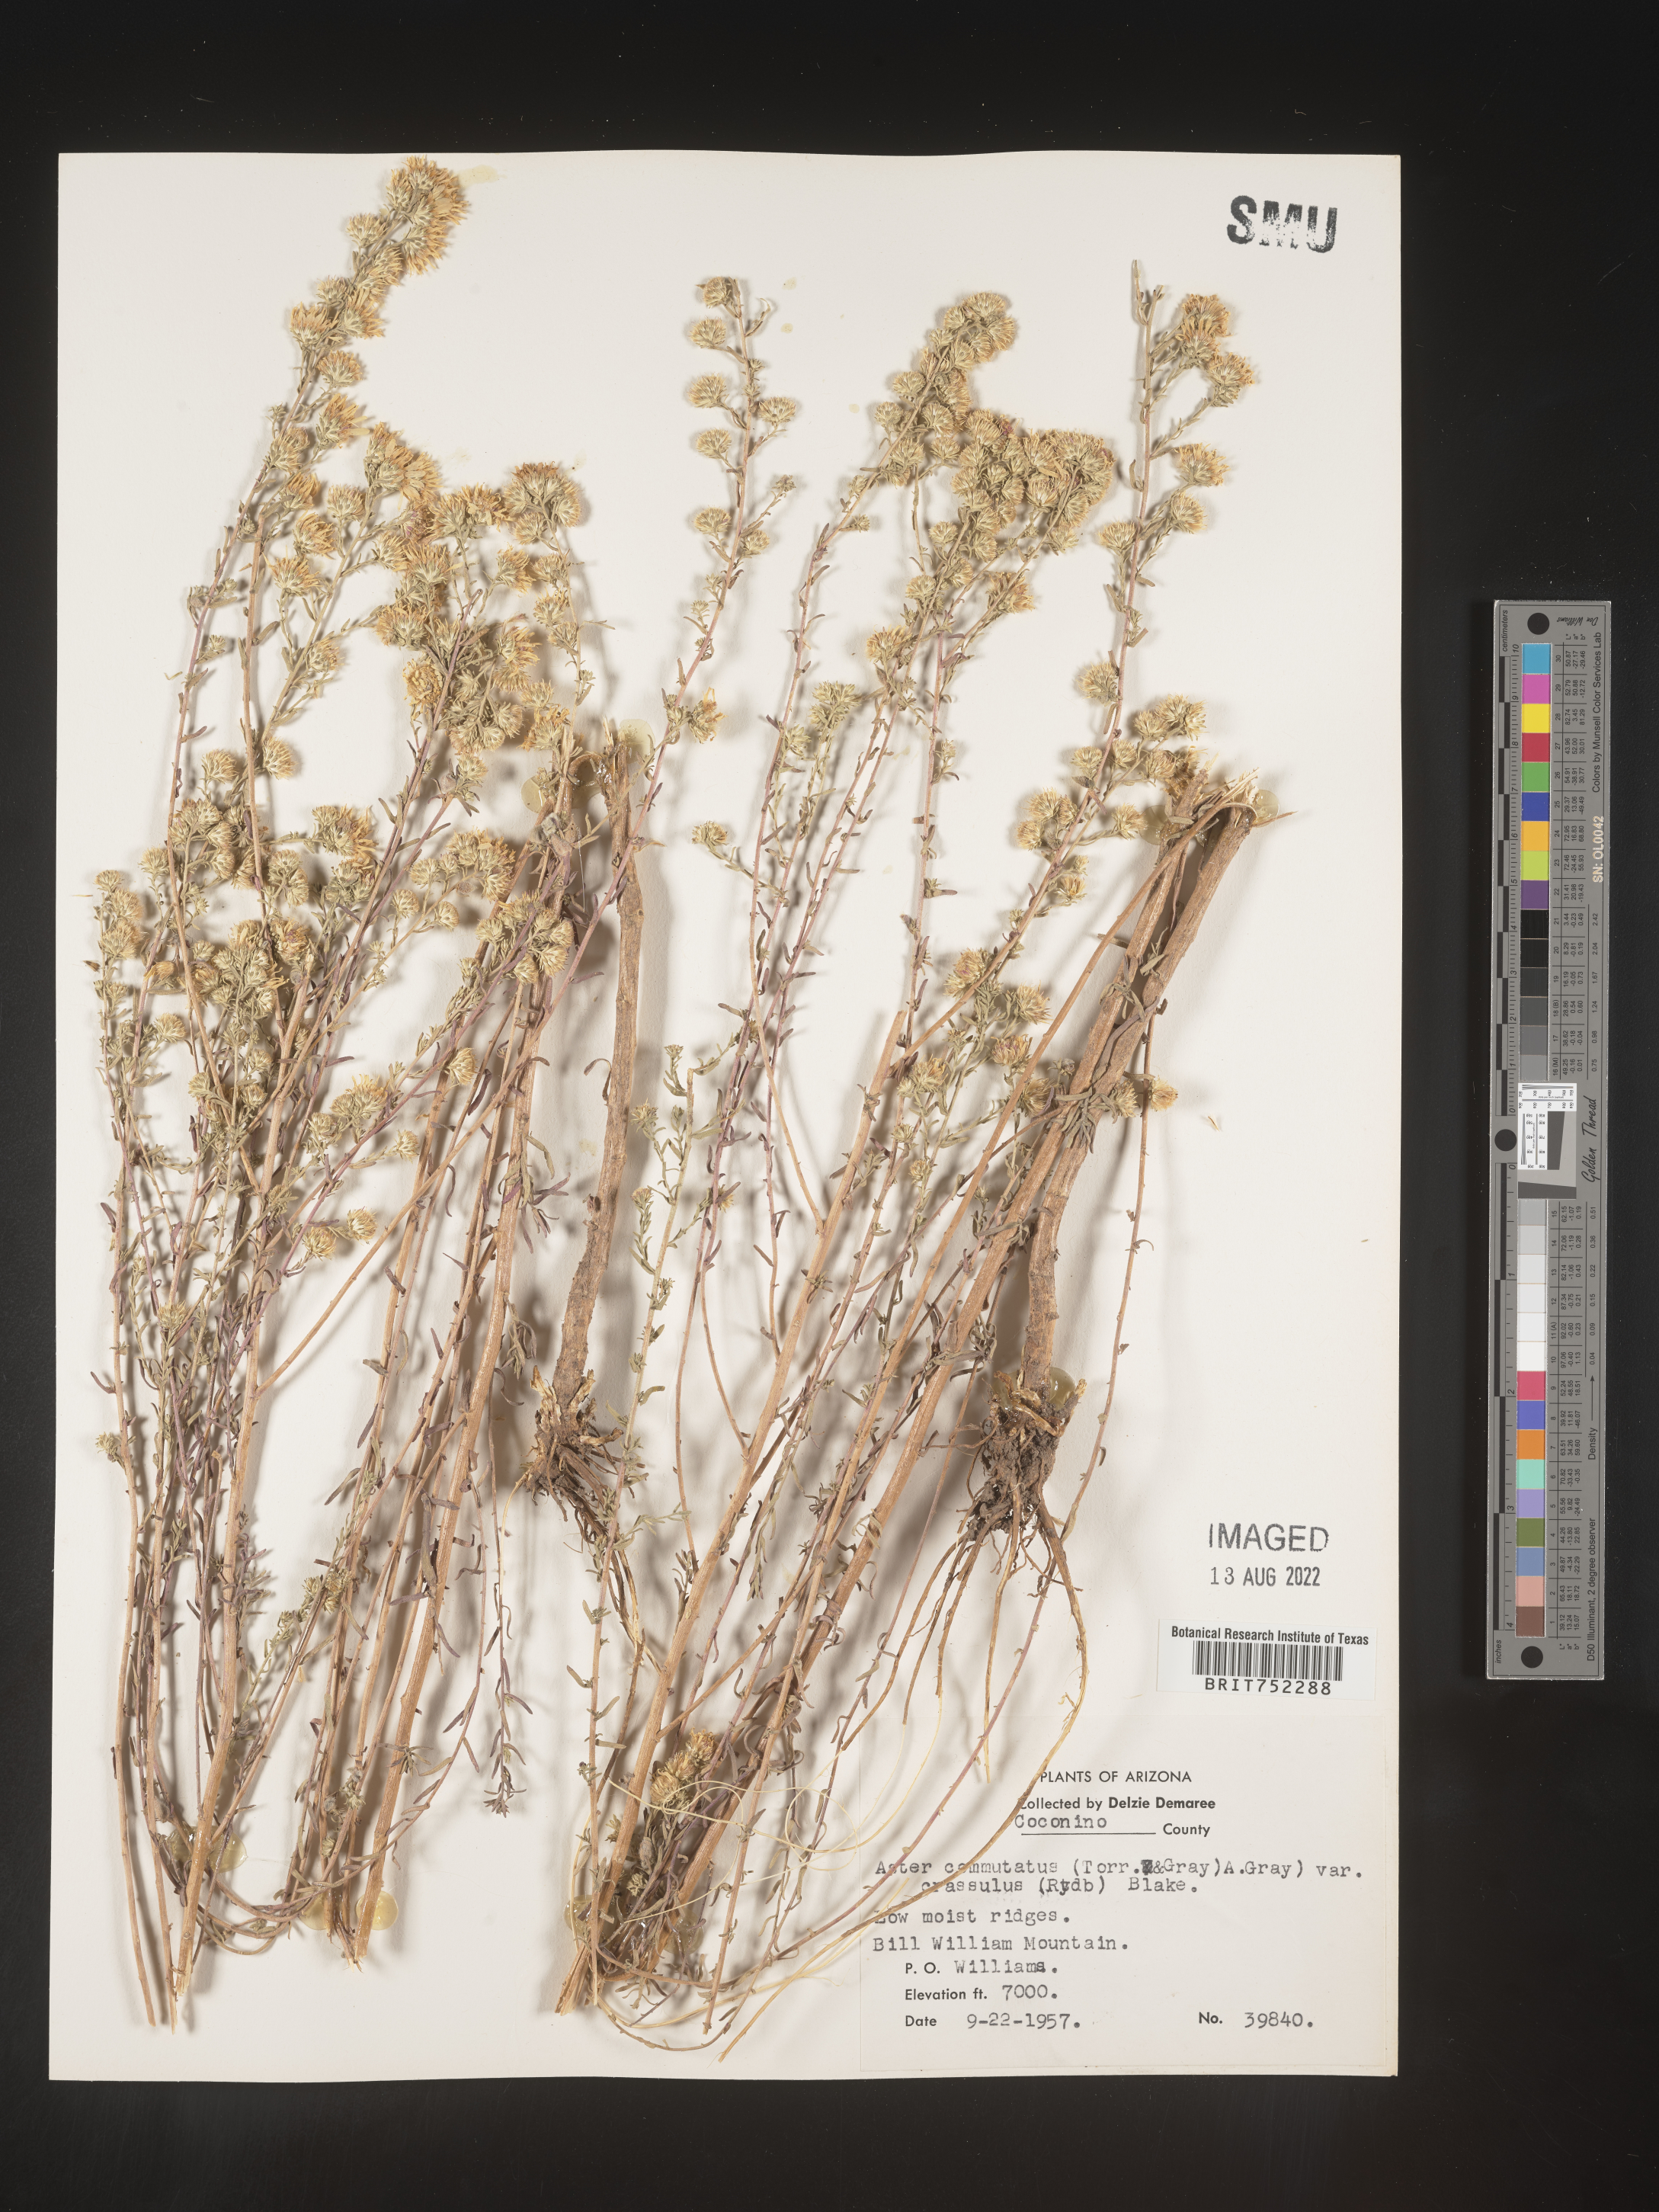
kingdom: Plantae
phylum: Tracheophyta
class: Magnoliopsida
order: Asterales
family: Asteraceae
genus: Symphyotrichum
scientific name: Symphyotrichum falcatum
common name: Creeping white prairie aster
